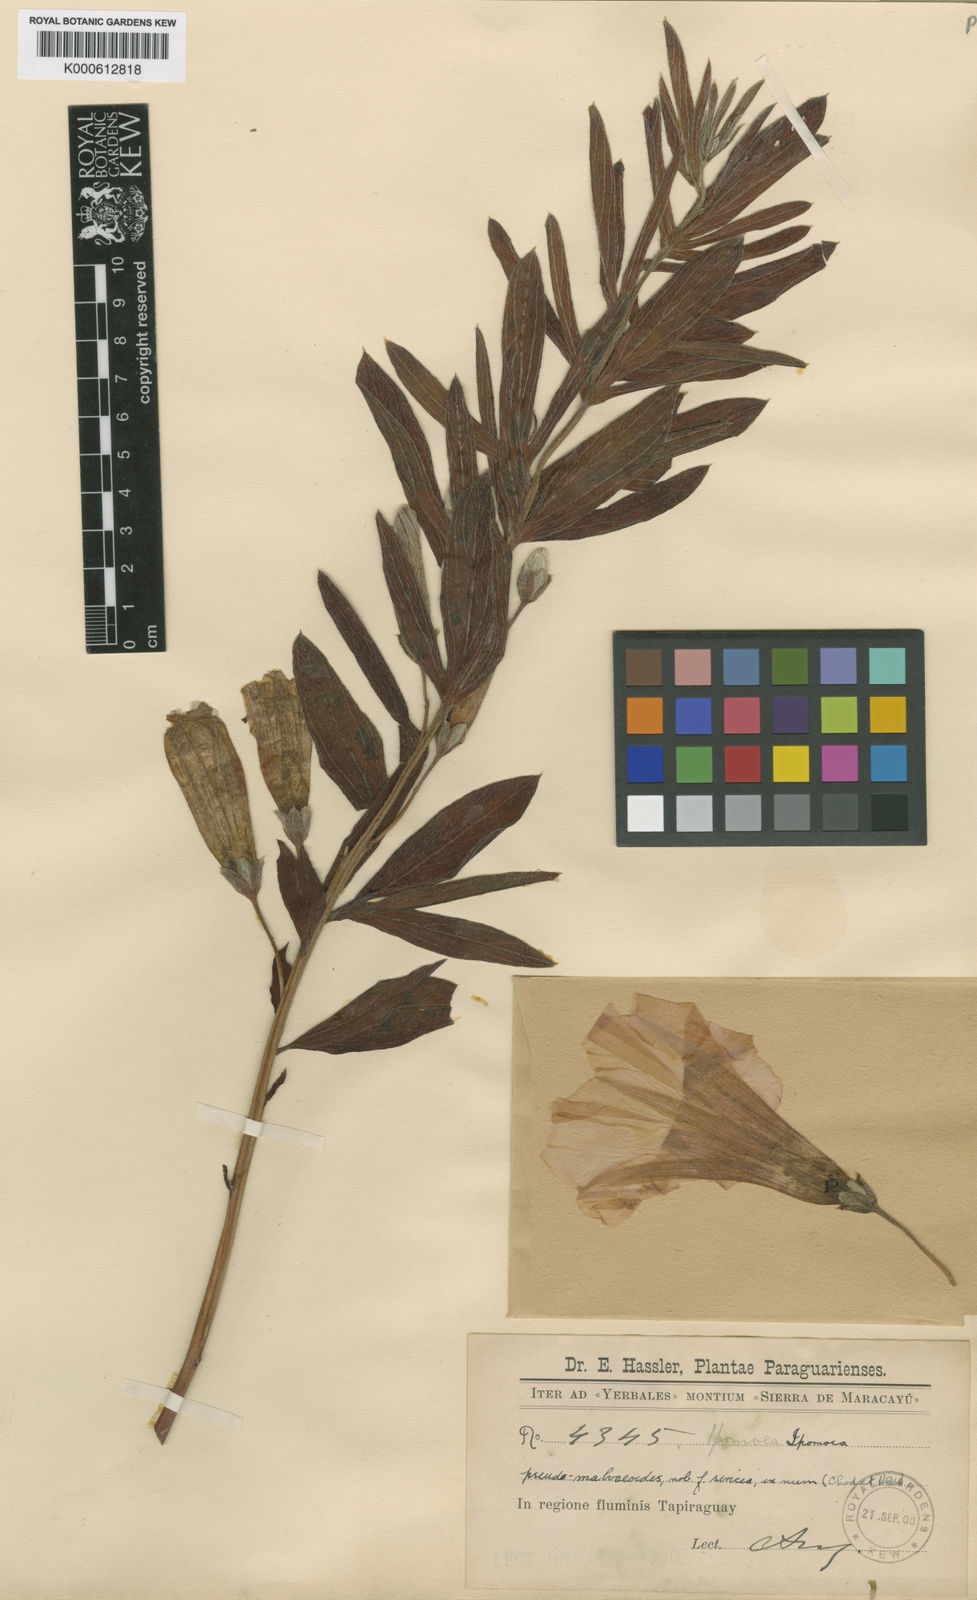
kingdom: Plantae
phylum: Tracheophyta
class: Magnoliopsida
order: Solanales
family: Convolvulaceae
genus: Ipomoea
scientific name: Ipomoea pseudomalvaeoides
